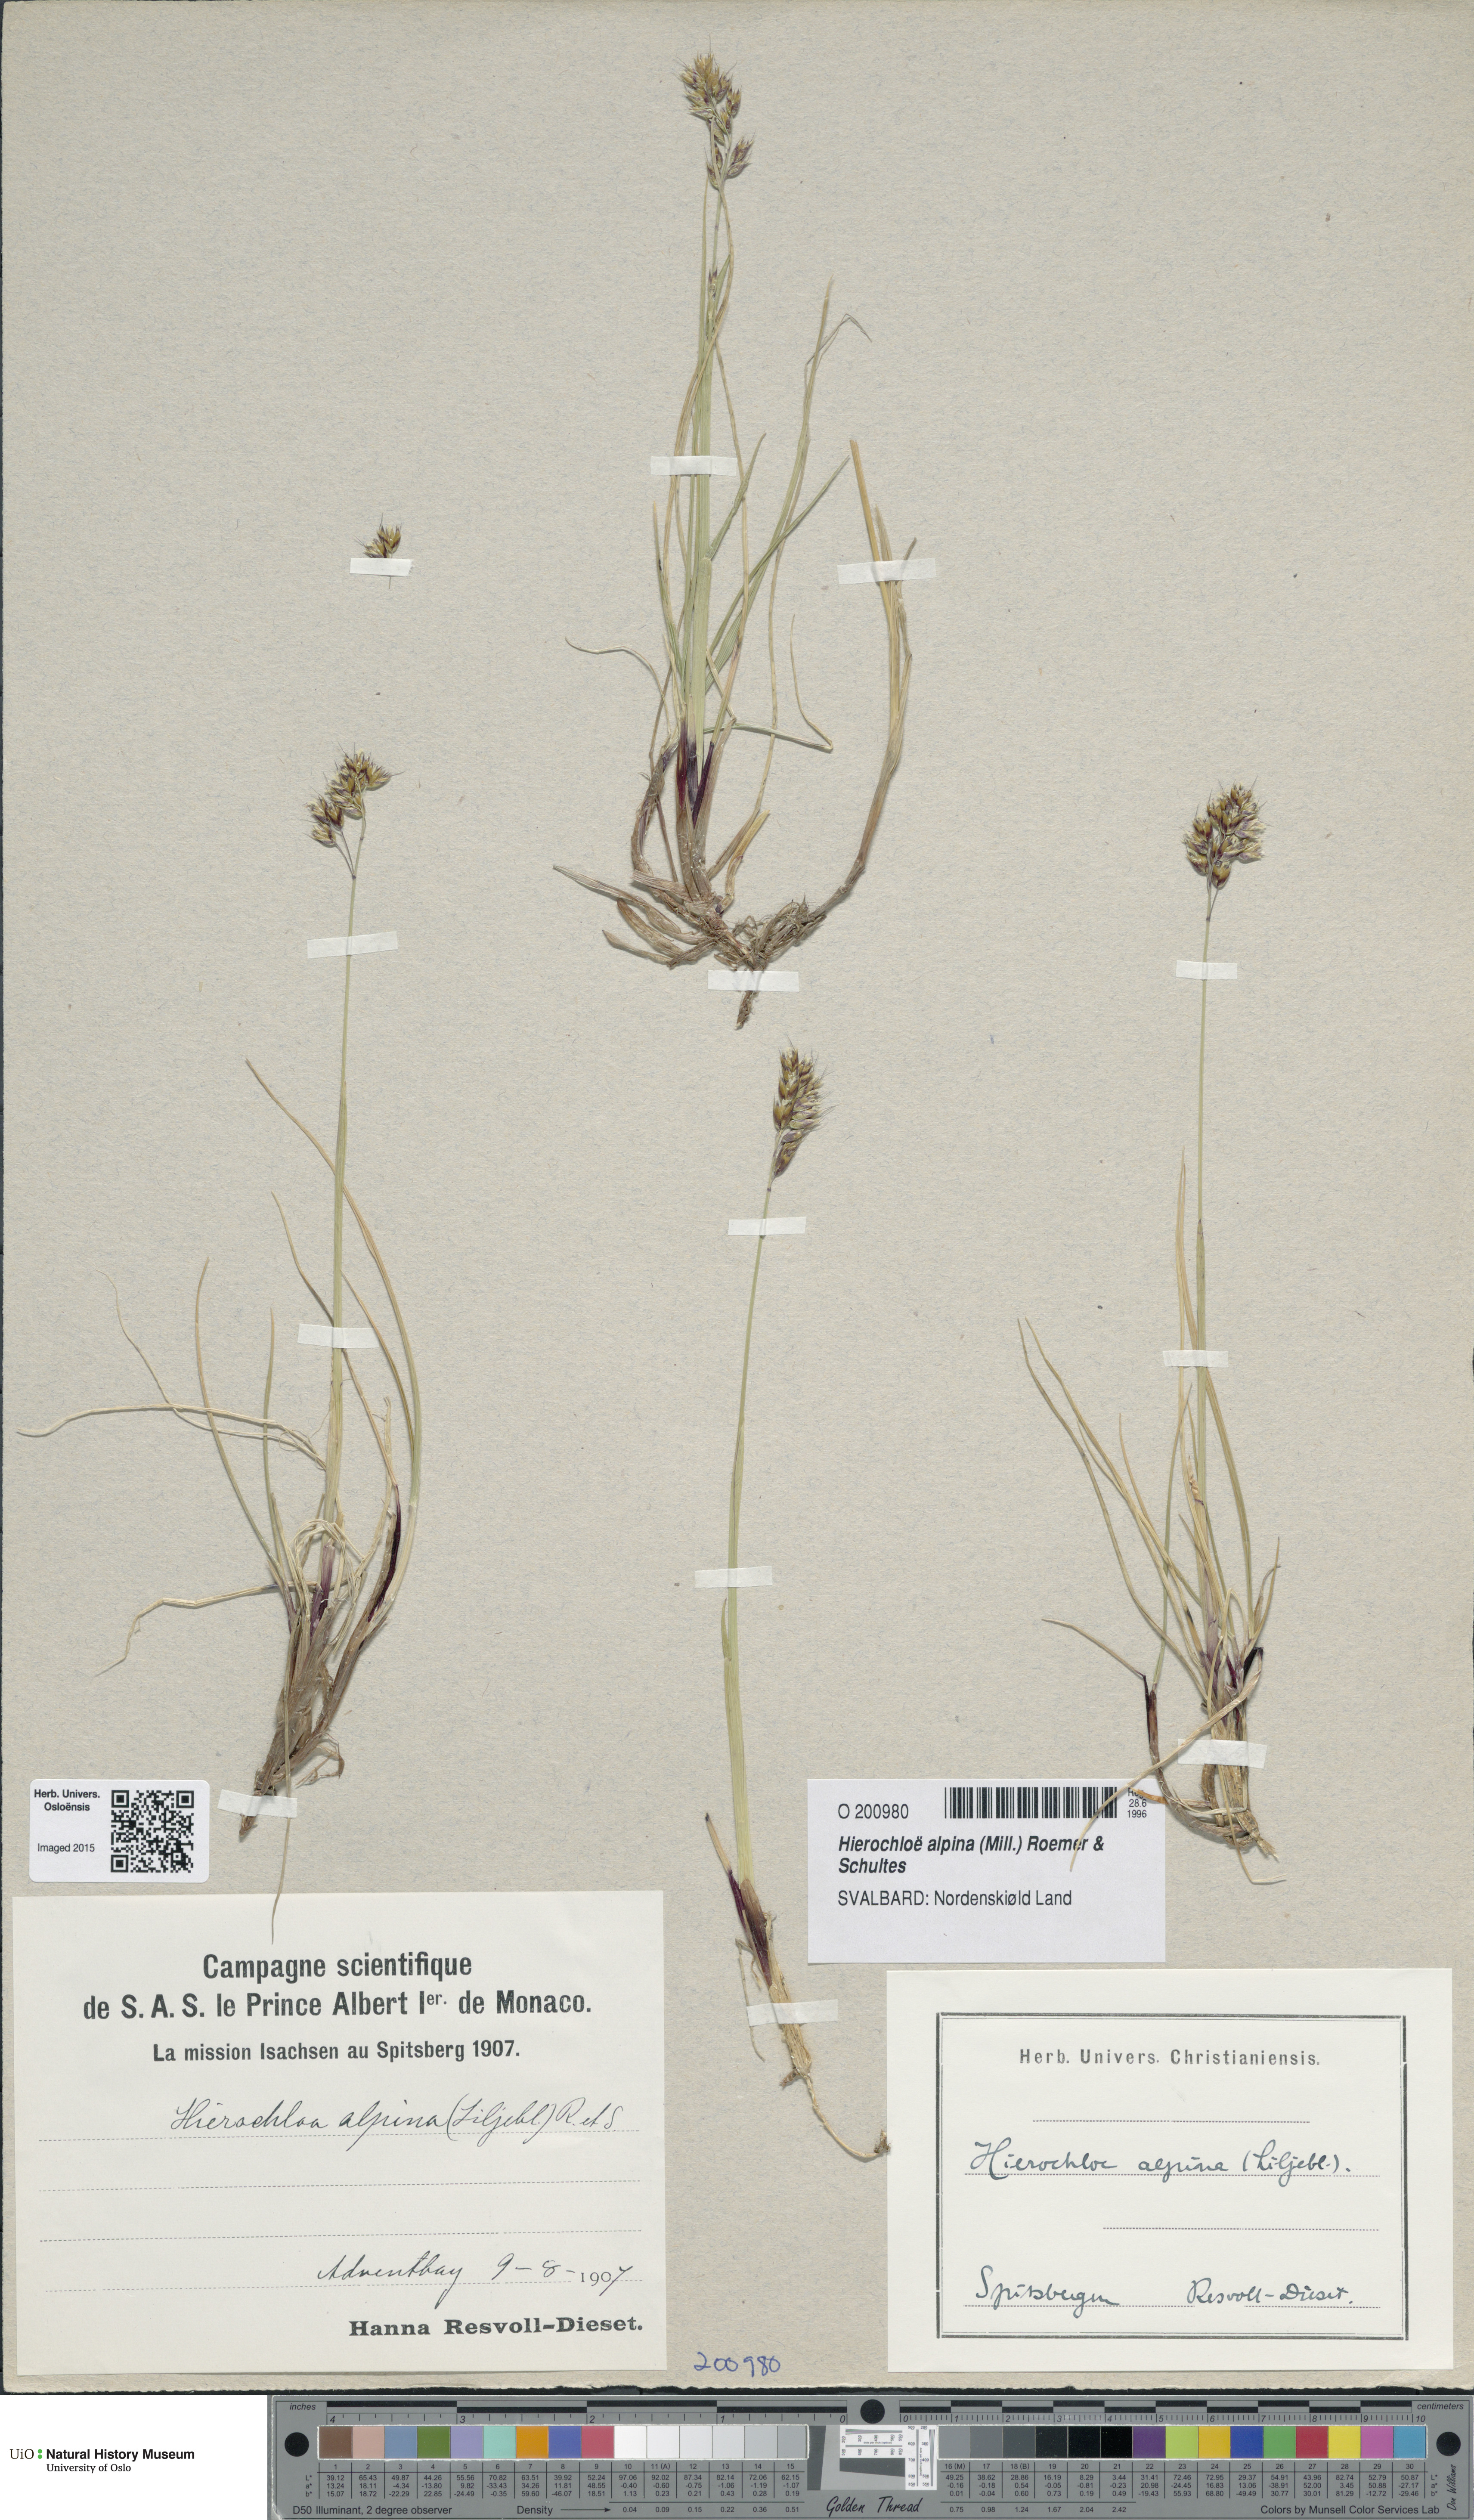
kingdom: Plantae
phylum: Tracheophyta
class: Liliopsida
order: Poales
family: Poaceae
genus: Anthoxanthum
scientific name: Anthoxanthum monticola
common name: Alpine sweetgrass
